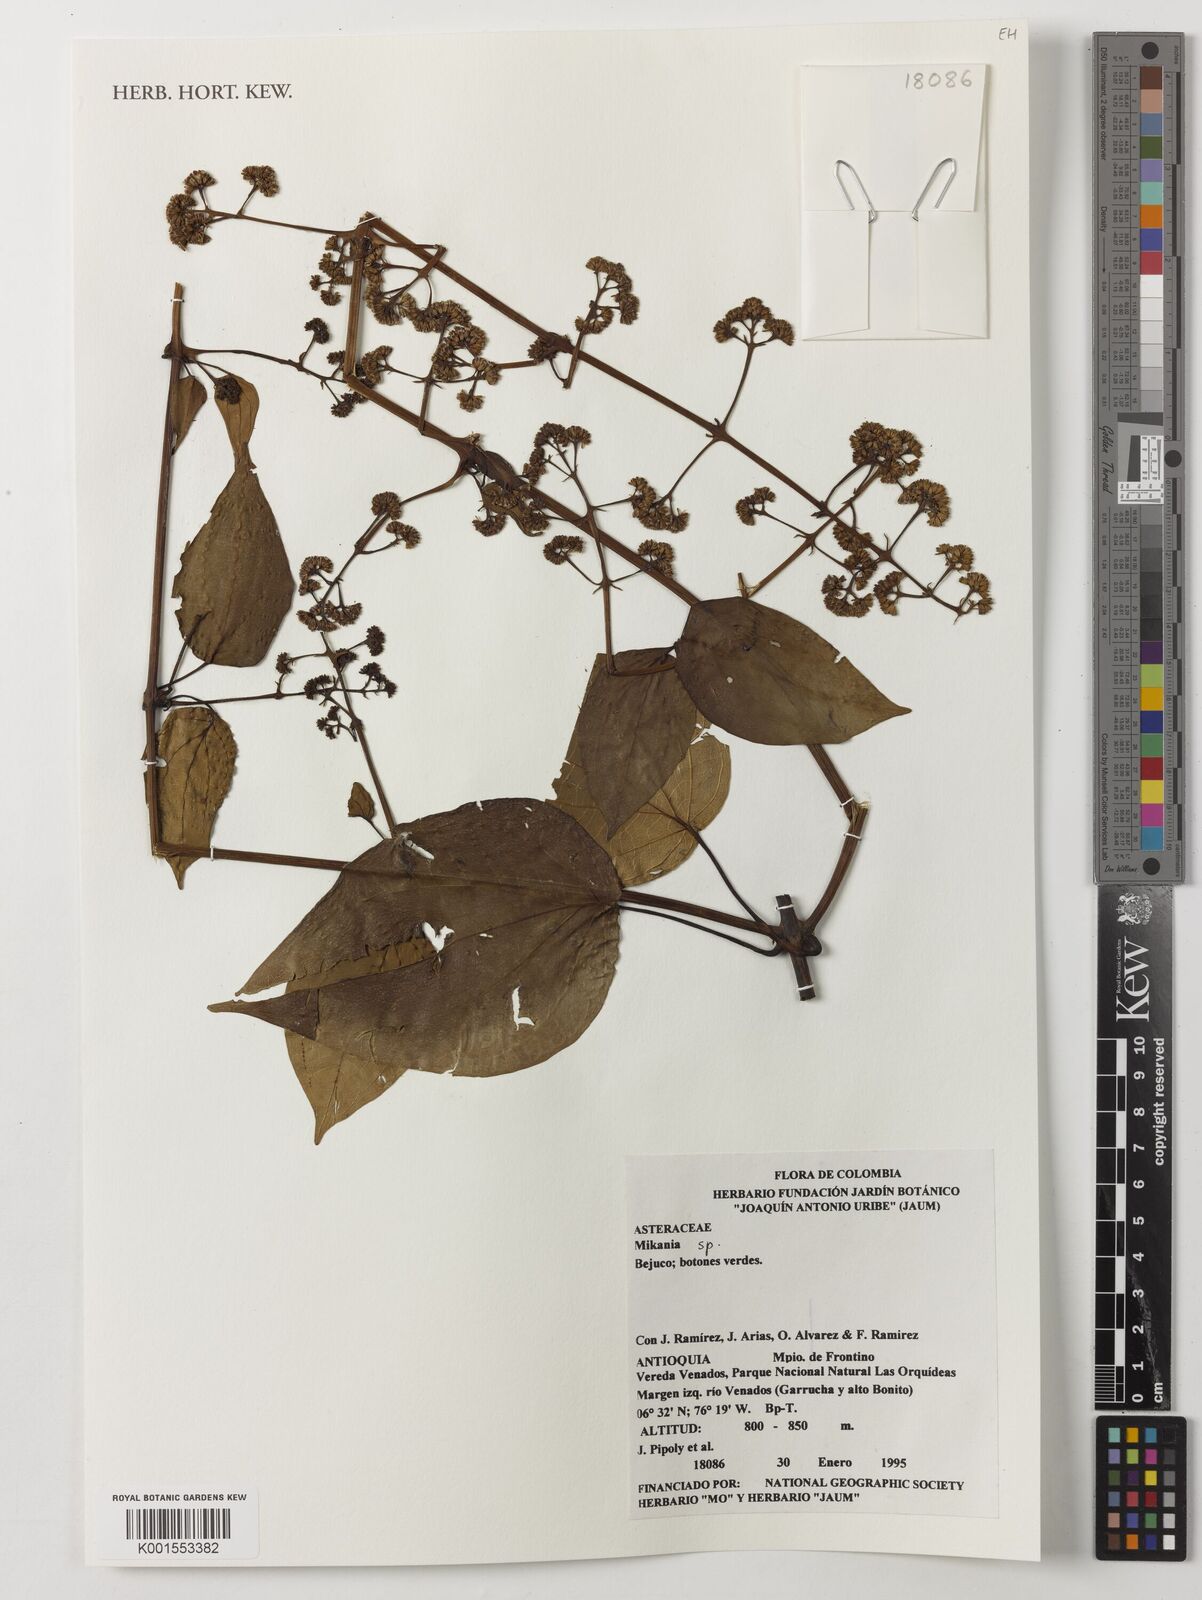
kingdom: Plantae
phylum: Tracheophyta
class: Magnoliopsida
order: Asterales
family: Asteraceae
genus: Mikania
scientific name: Mikania
